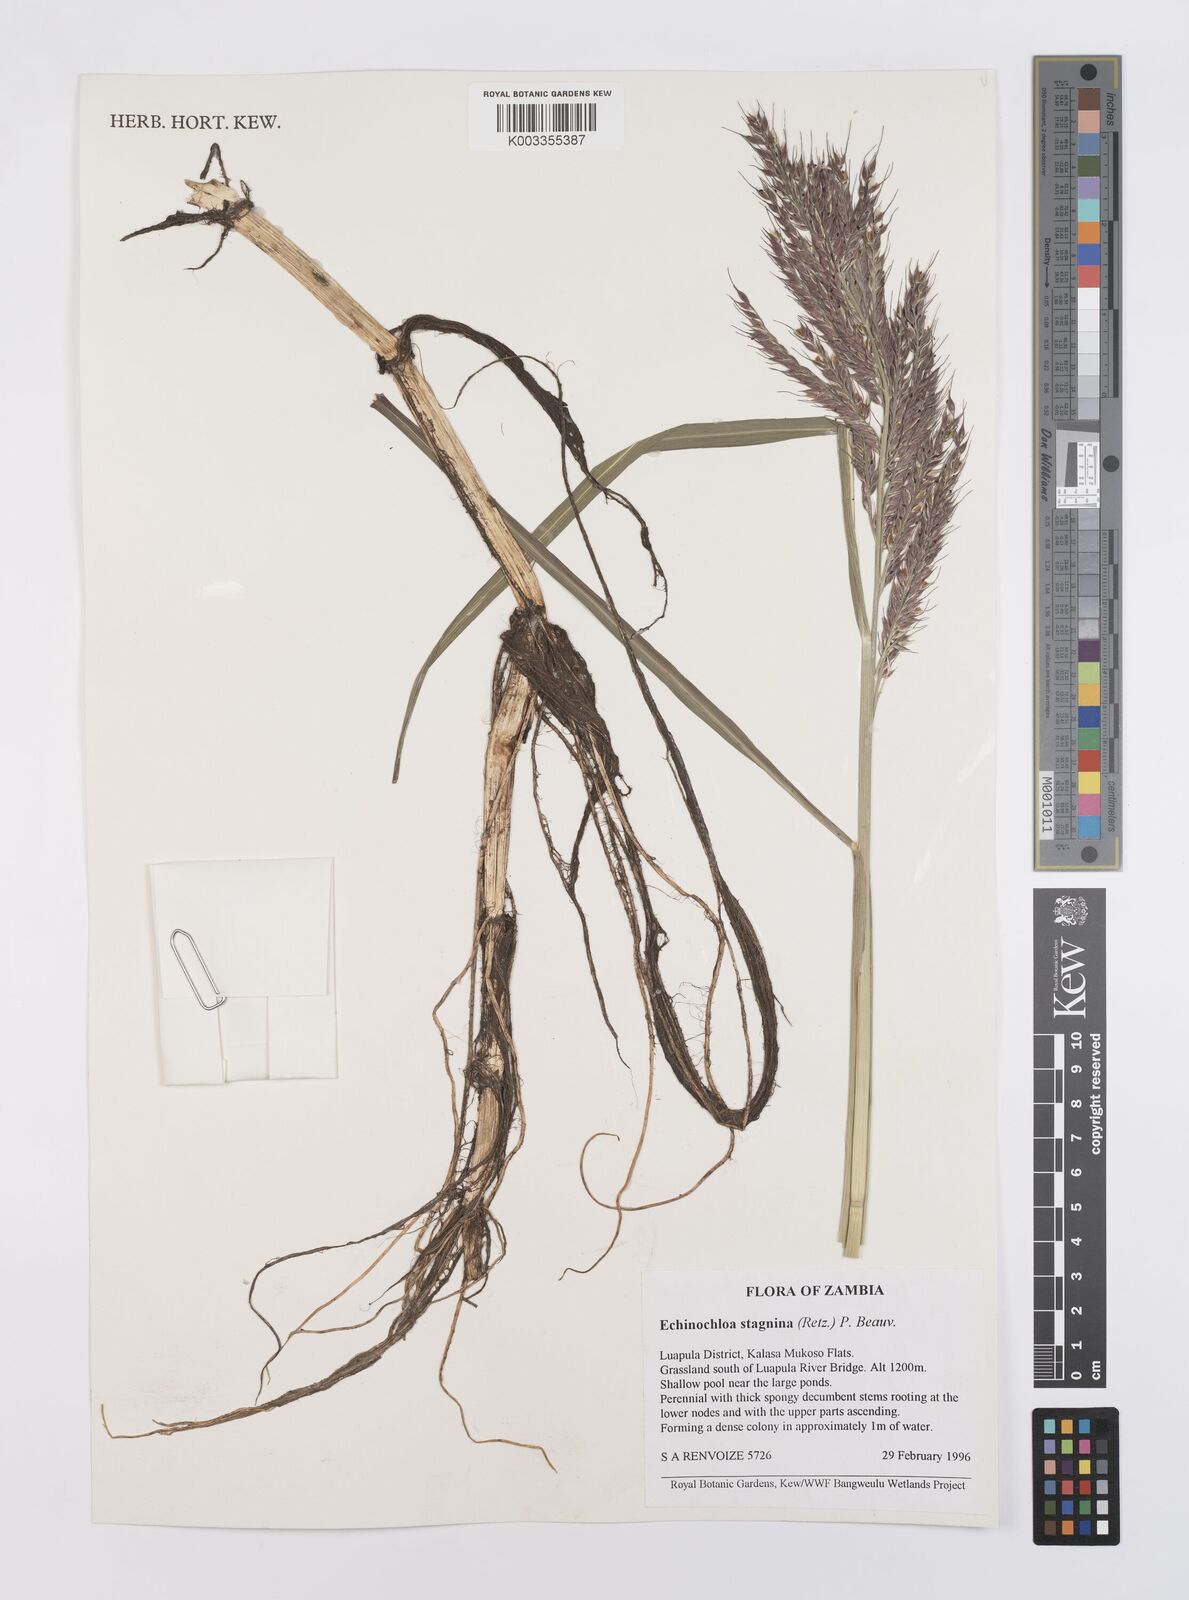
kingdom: Plantae
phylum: Tracheophyta
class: Liliopsida
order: Poales
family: Poaceae
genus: Echinochloa
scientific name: Echinochloa stagnina
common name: Burgu grass
